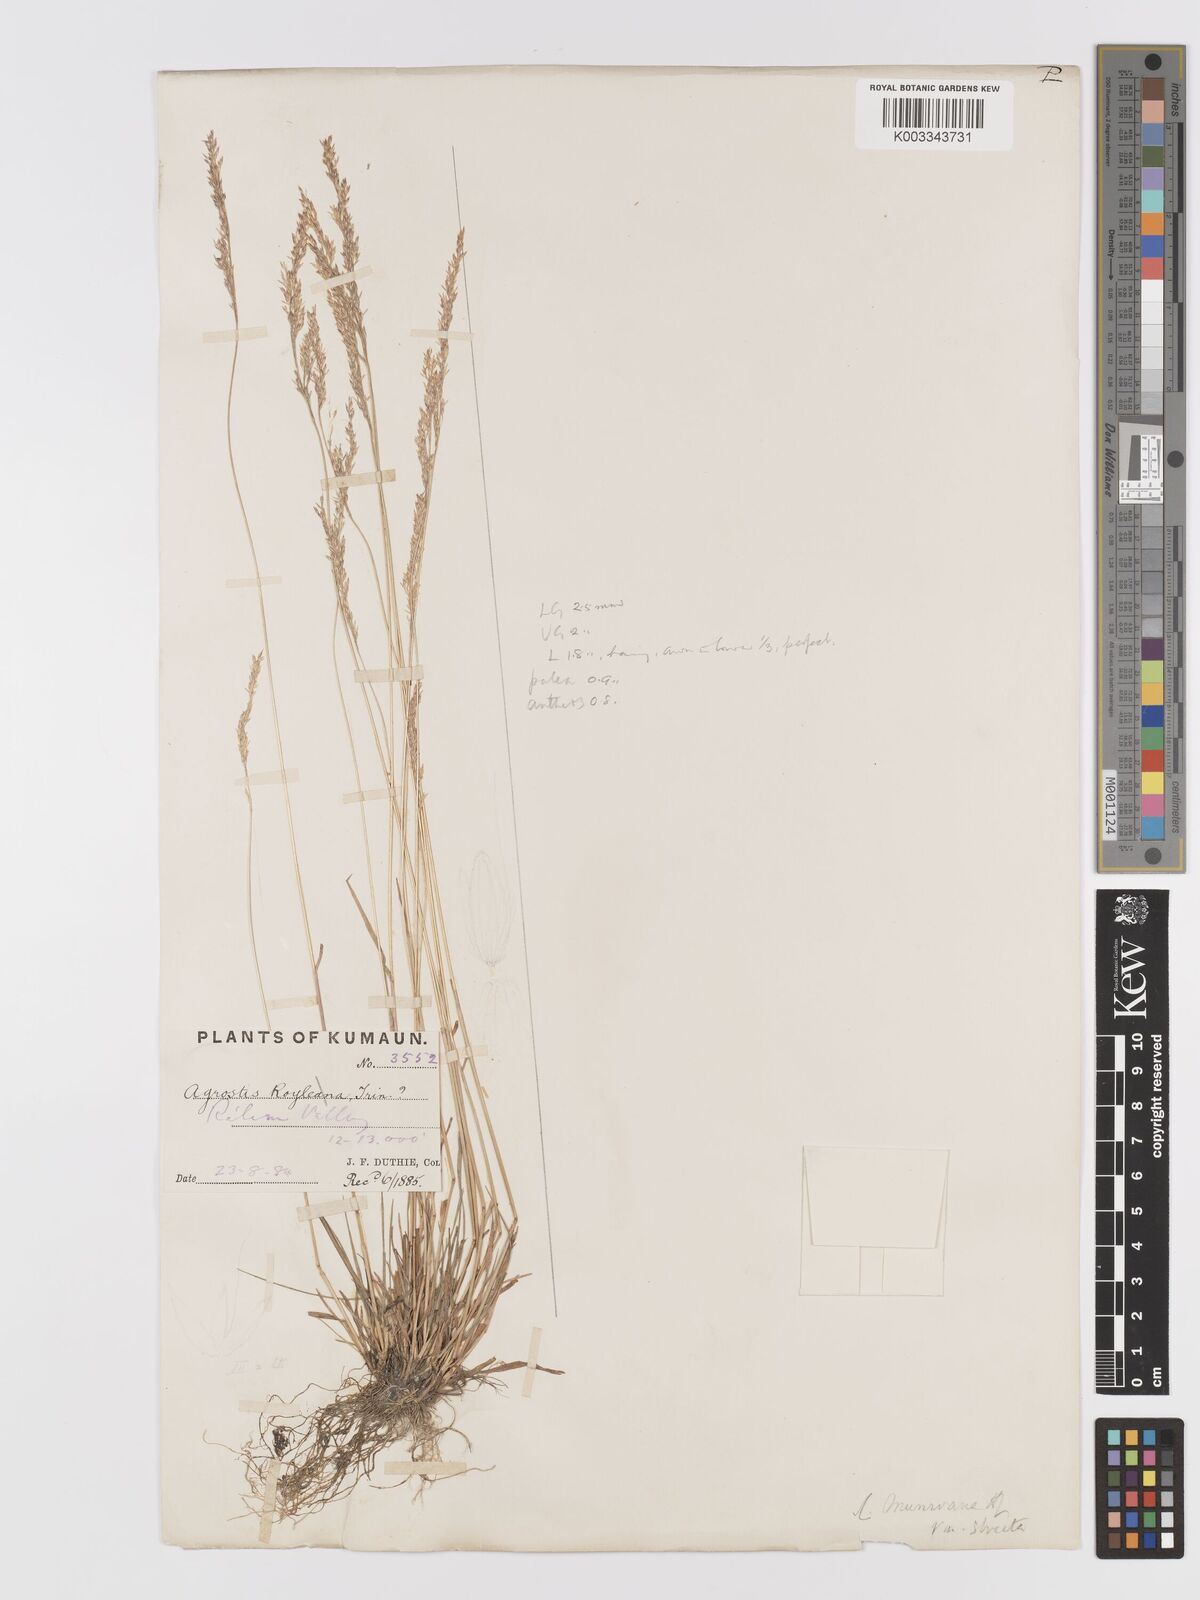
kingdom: Plantae
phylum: Tracheophyta
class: Liliopsida
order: Poales
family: Poaceae
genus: Agrostis
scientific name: Agrostis pilosula
